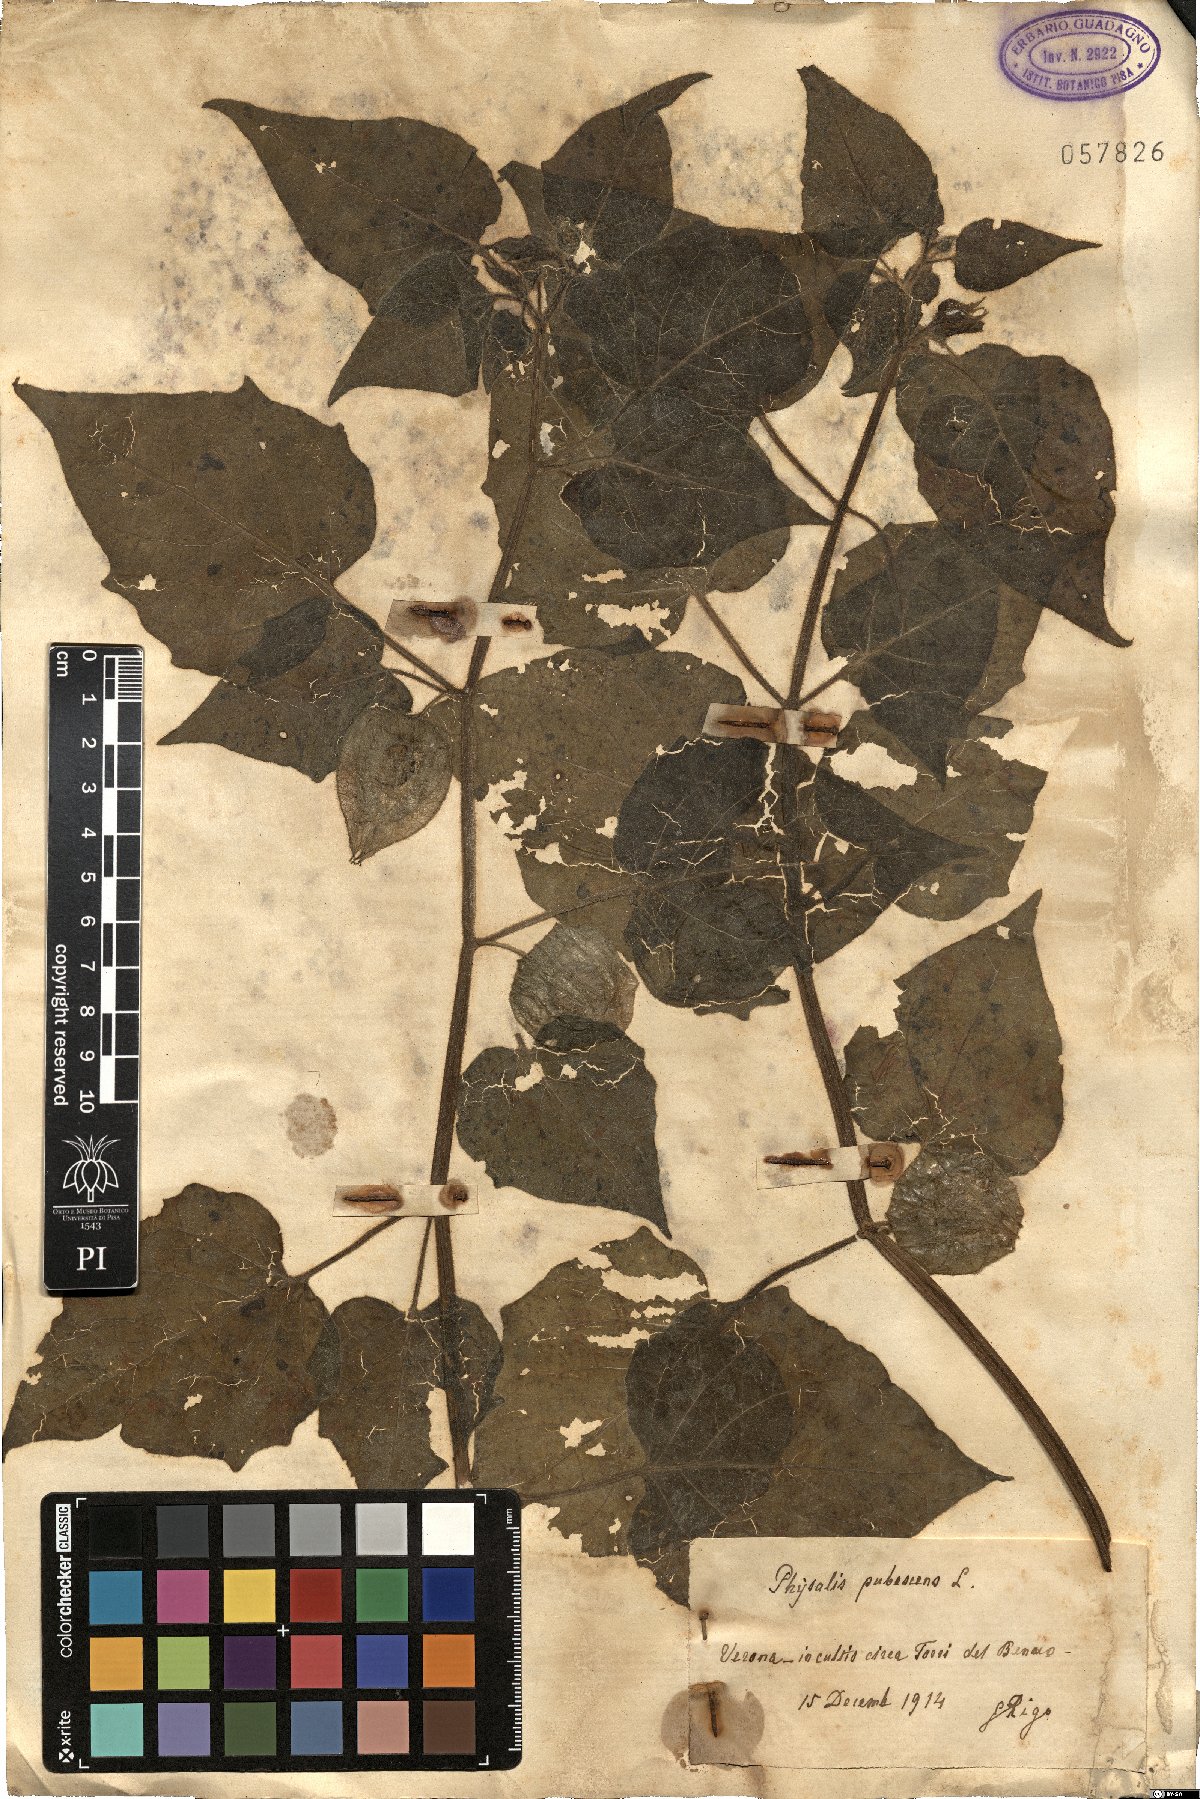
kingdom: Plantae
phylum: Tracheophyta
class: Magnoliopsida
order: Solanales
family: Solanaceae
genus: Physalis
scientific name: Physalis pubescens
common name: Downy ground-cherry
